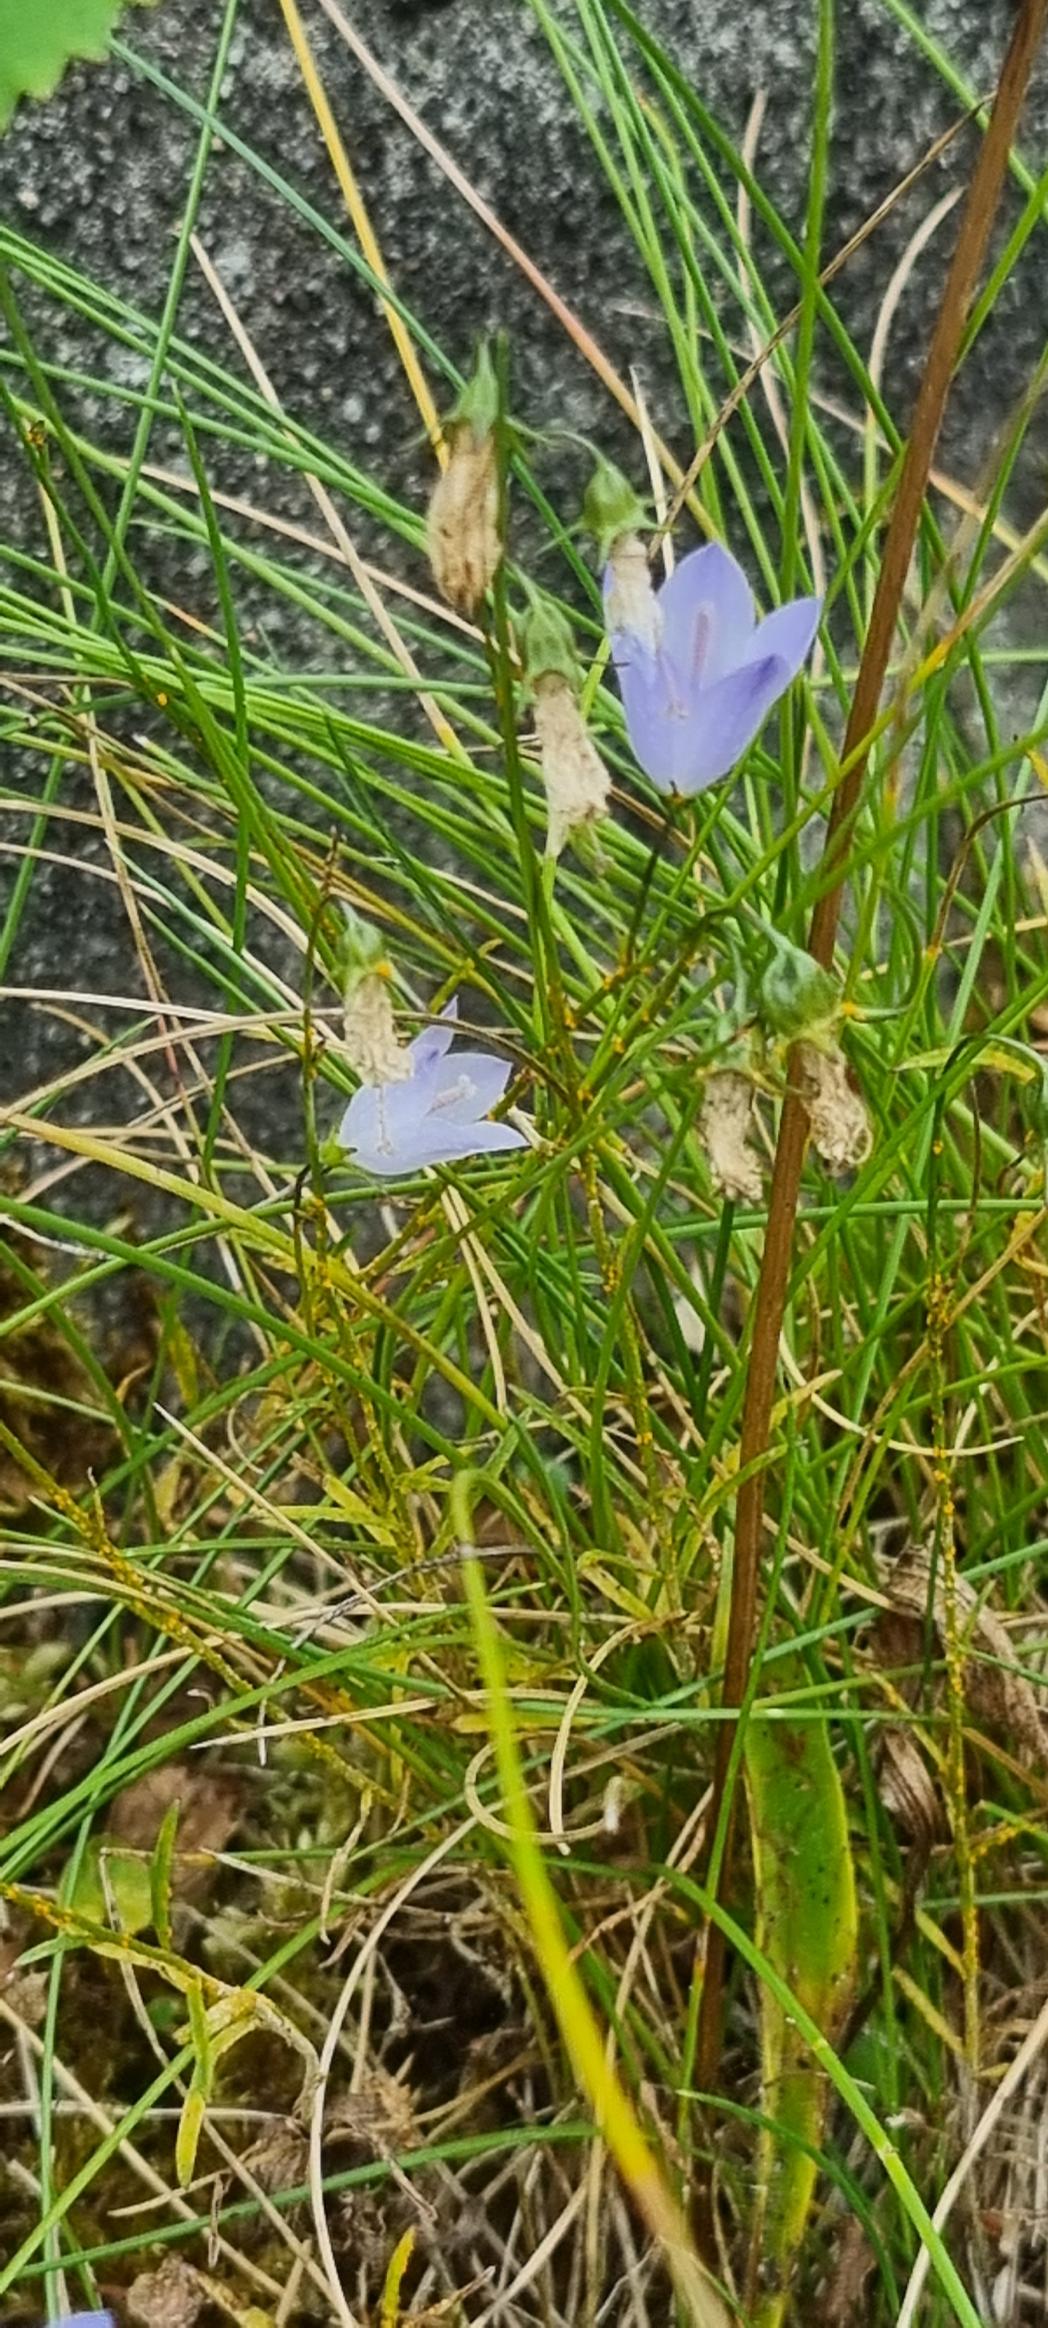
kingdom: Plantae
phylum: Tracheophyta
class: Magnoliopsida
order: Asterales
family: Campanulaceae
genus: Campanula
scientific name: Campanula rotundifolia
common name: Liden klokke
